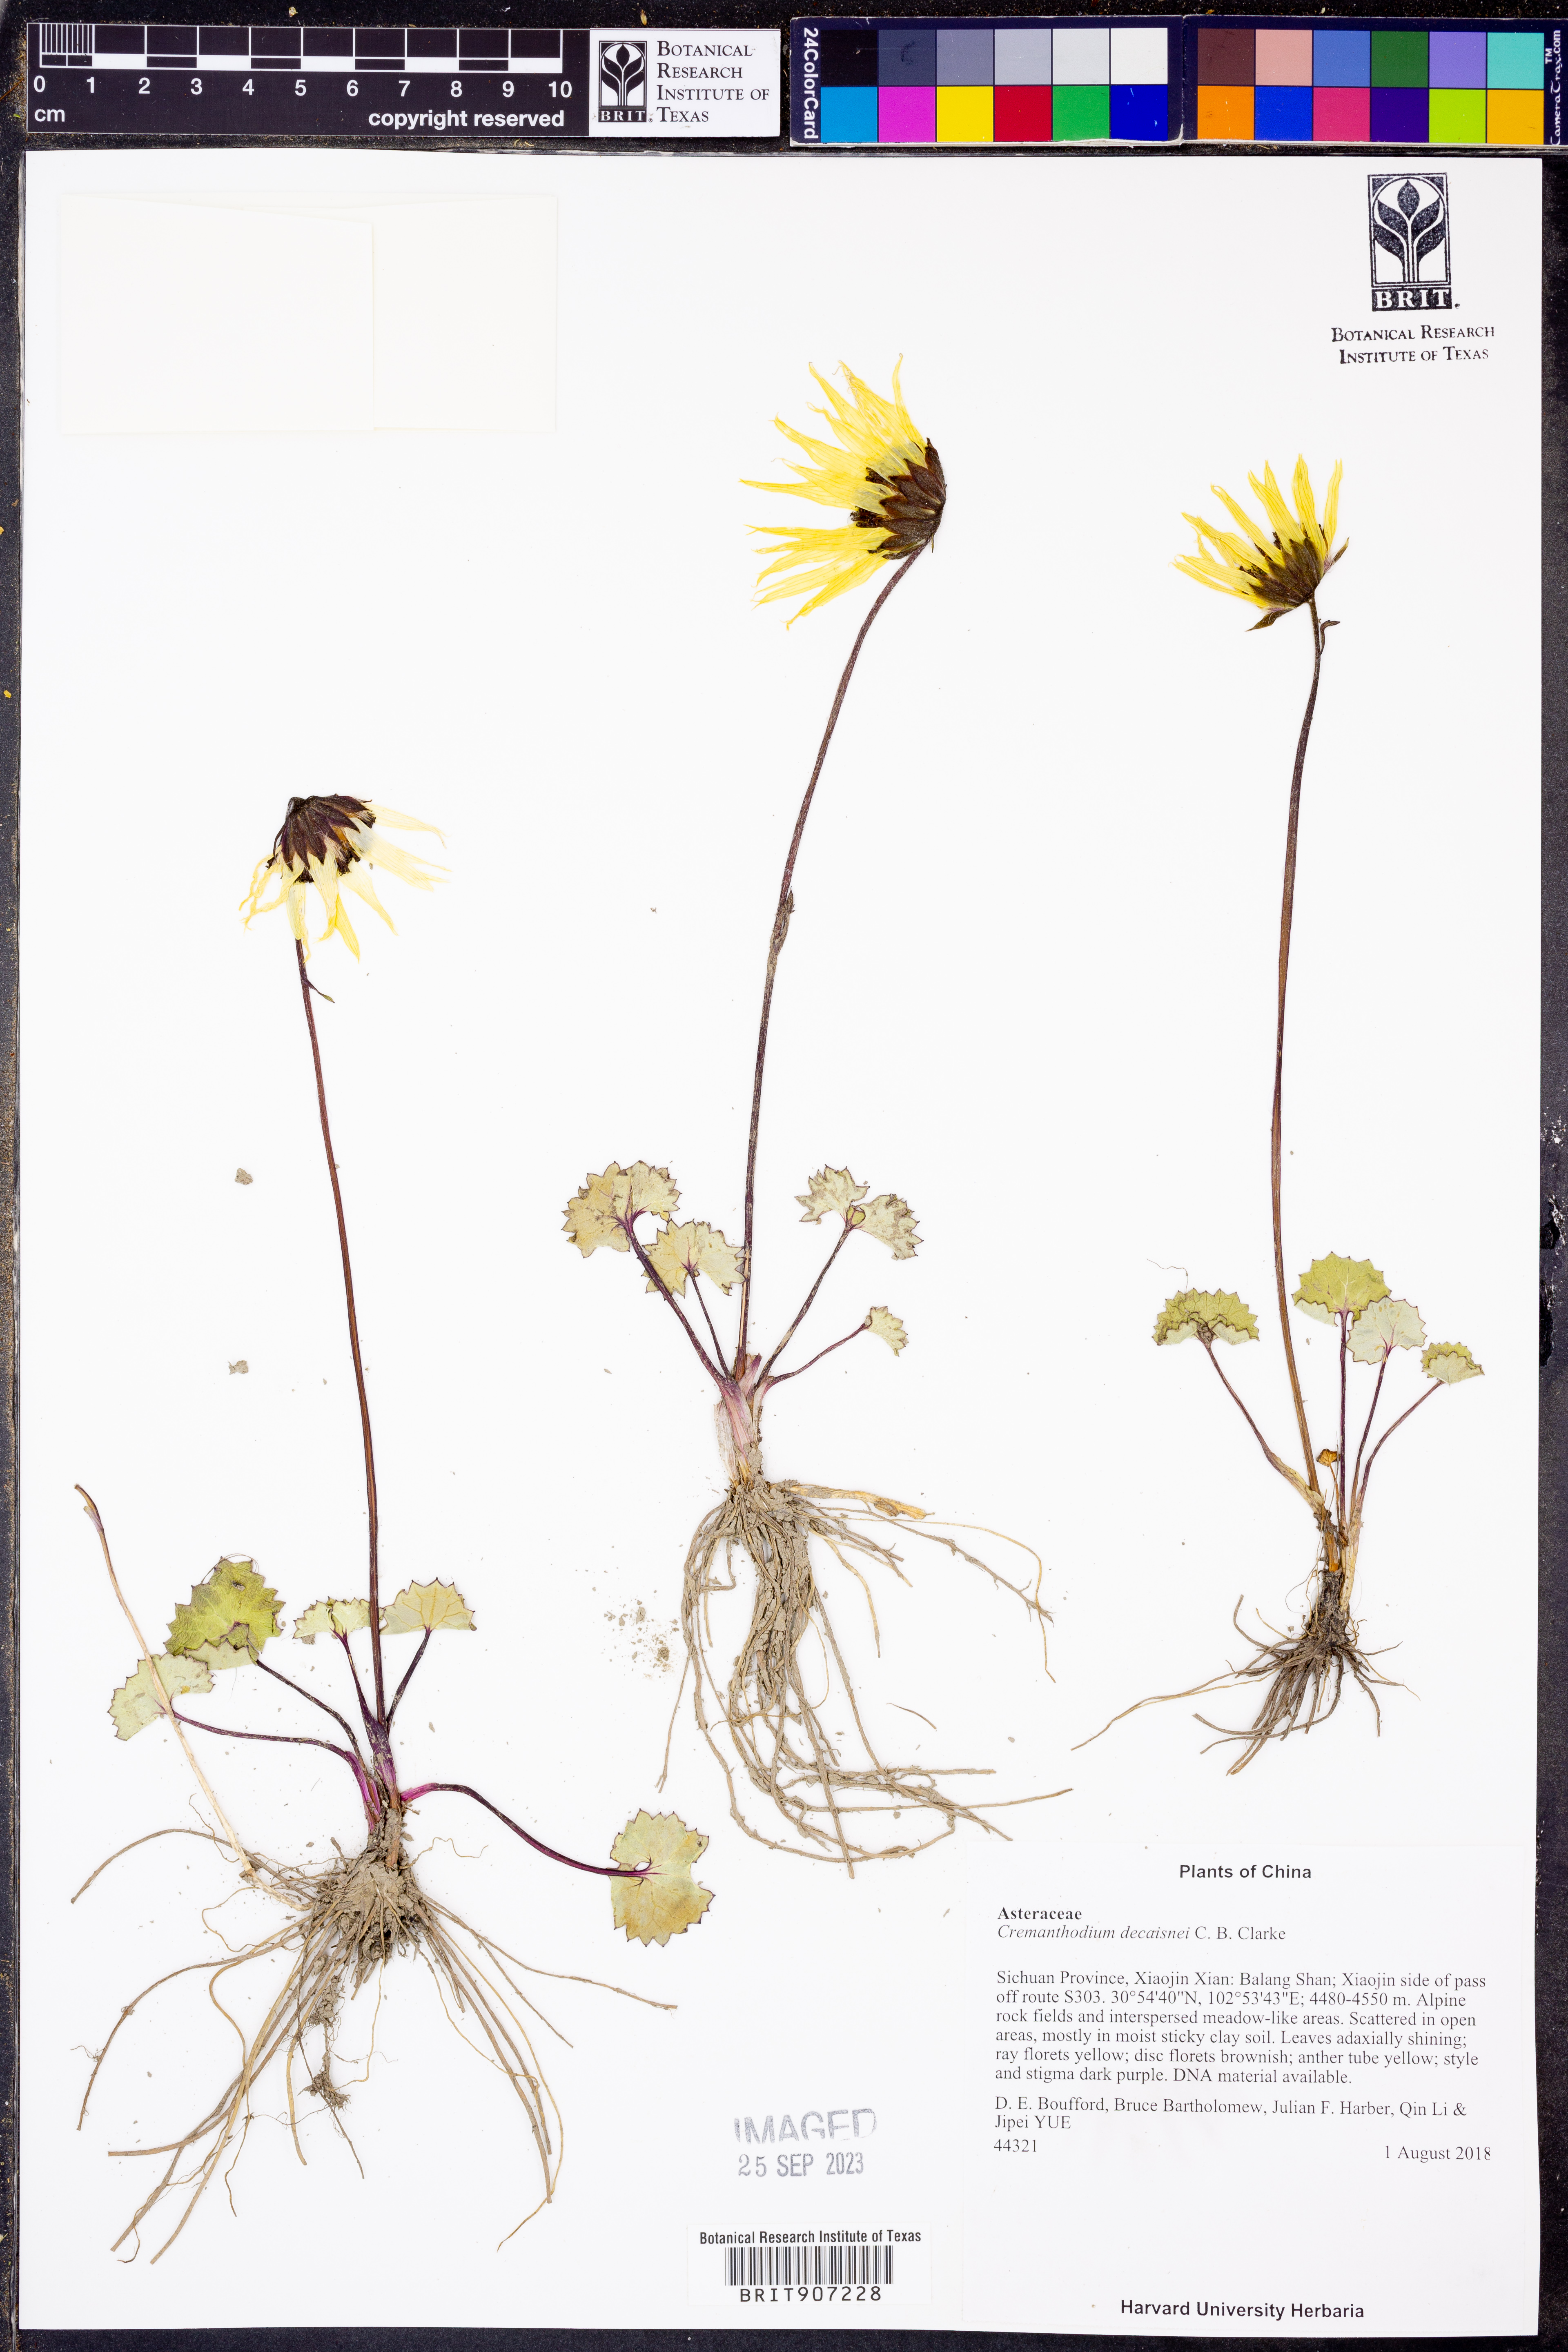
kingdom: Plantae
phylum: Tracheophyta
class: Magnoliopsida
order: Asterales
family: Asteraceae
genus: Cremanthodium
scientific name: Cremanthodium decaisnei
